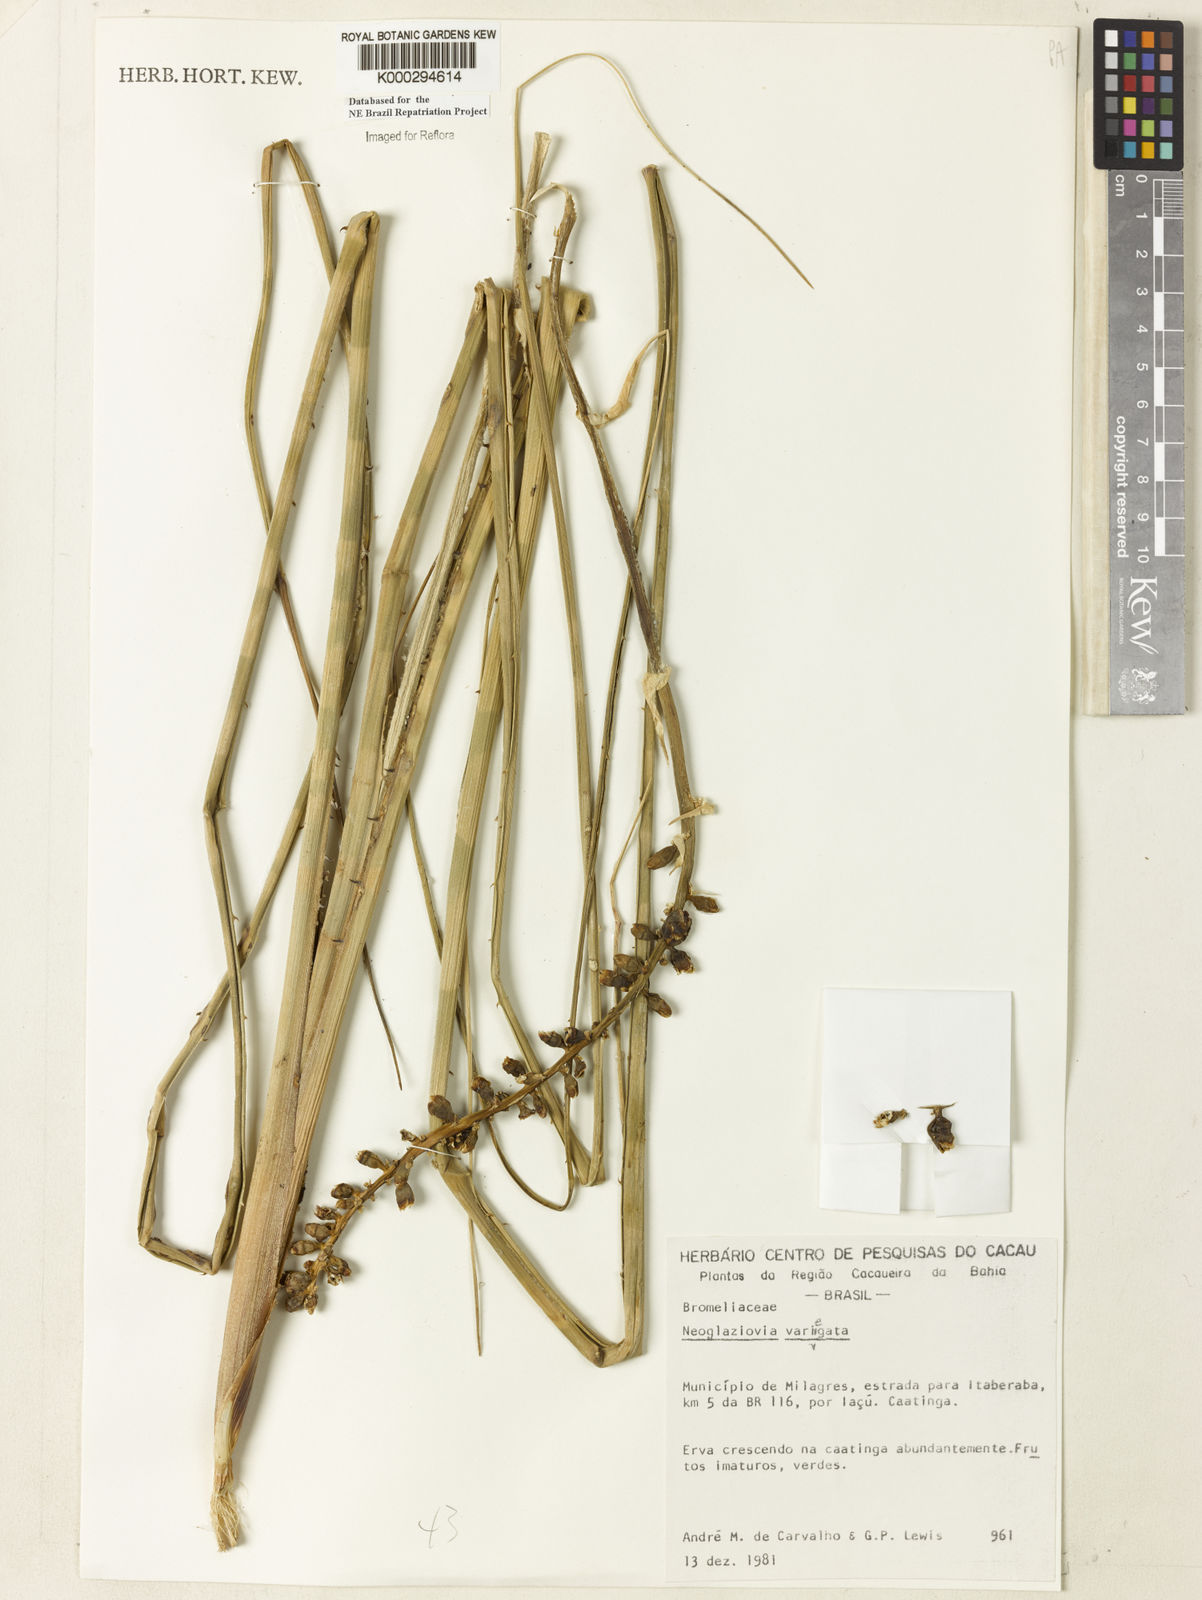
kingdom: Plantae
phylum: Tracheophyta
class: Liliopsida
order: Poales
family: Bromeliaceae
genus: Neoglaziovia
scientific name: Neoglaziovia variegata
